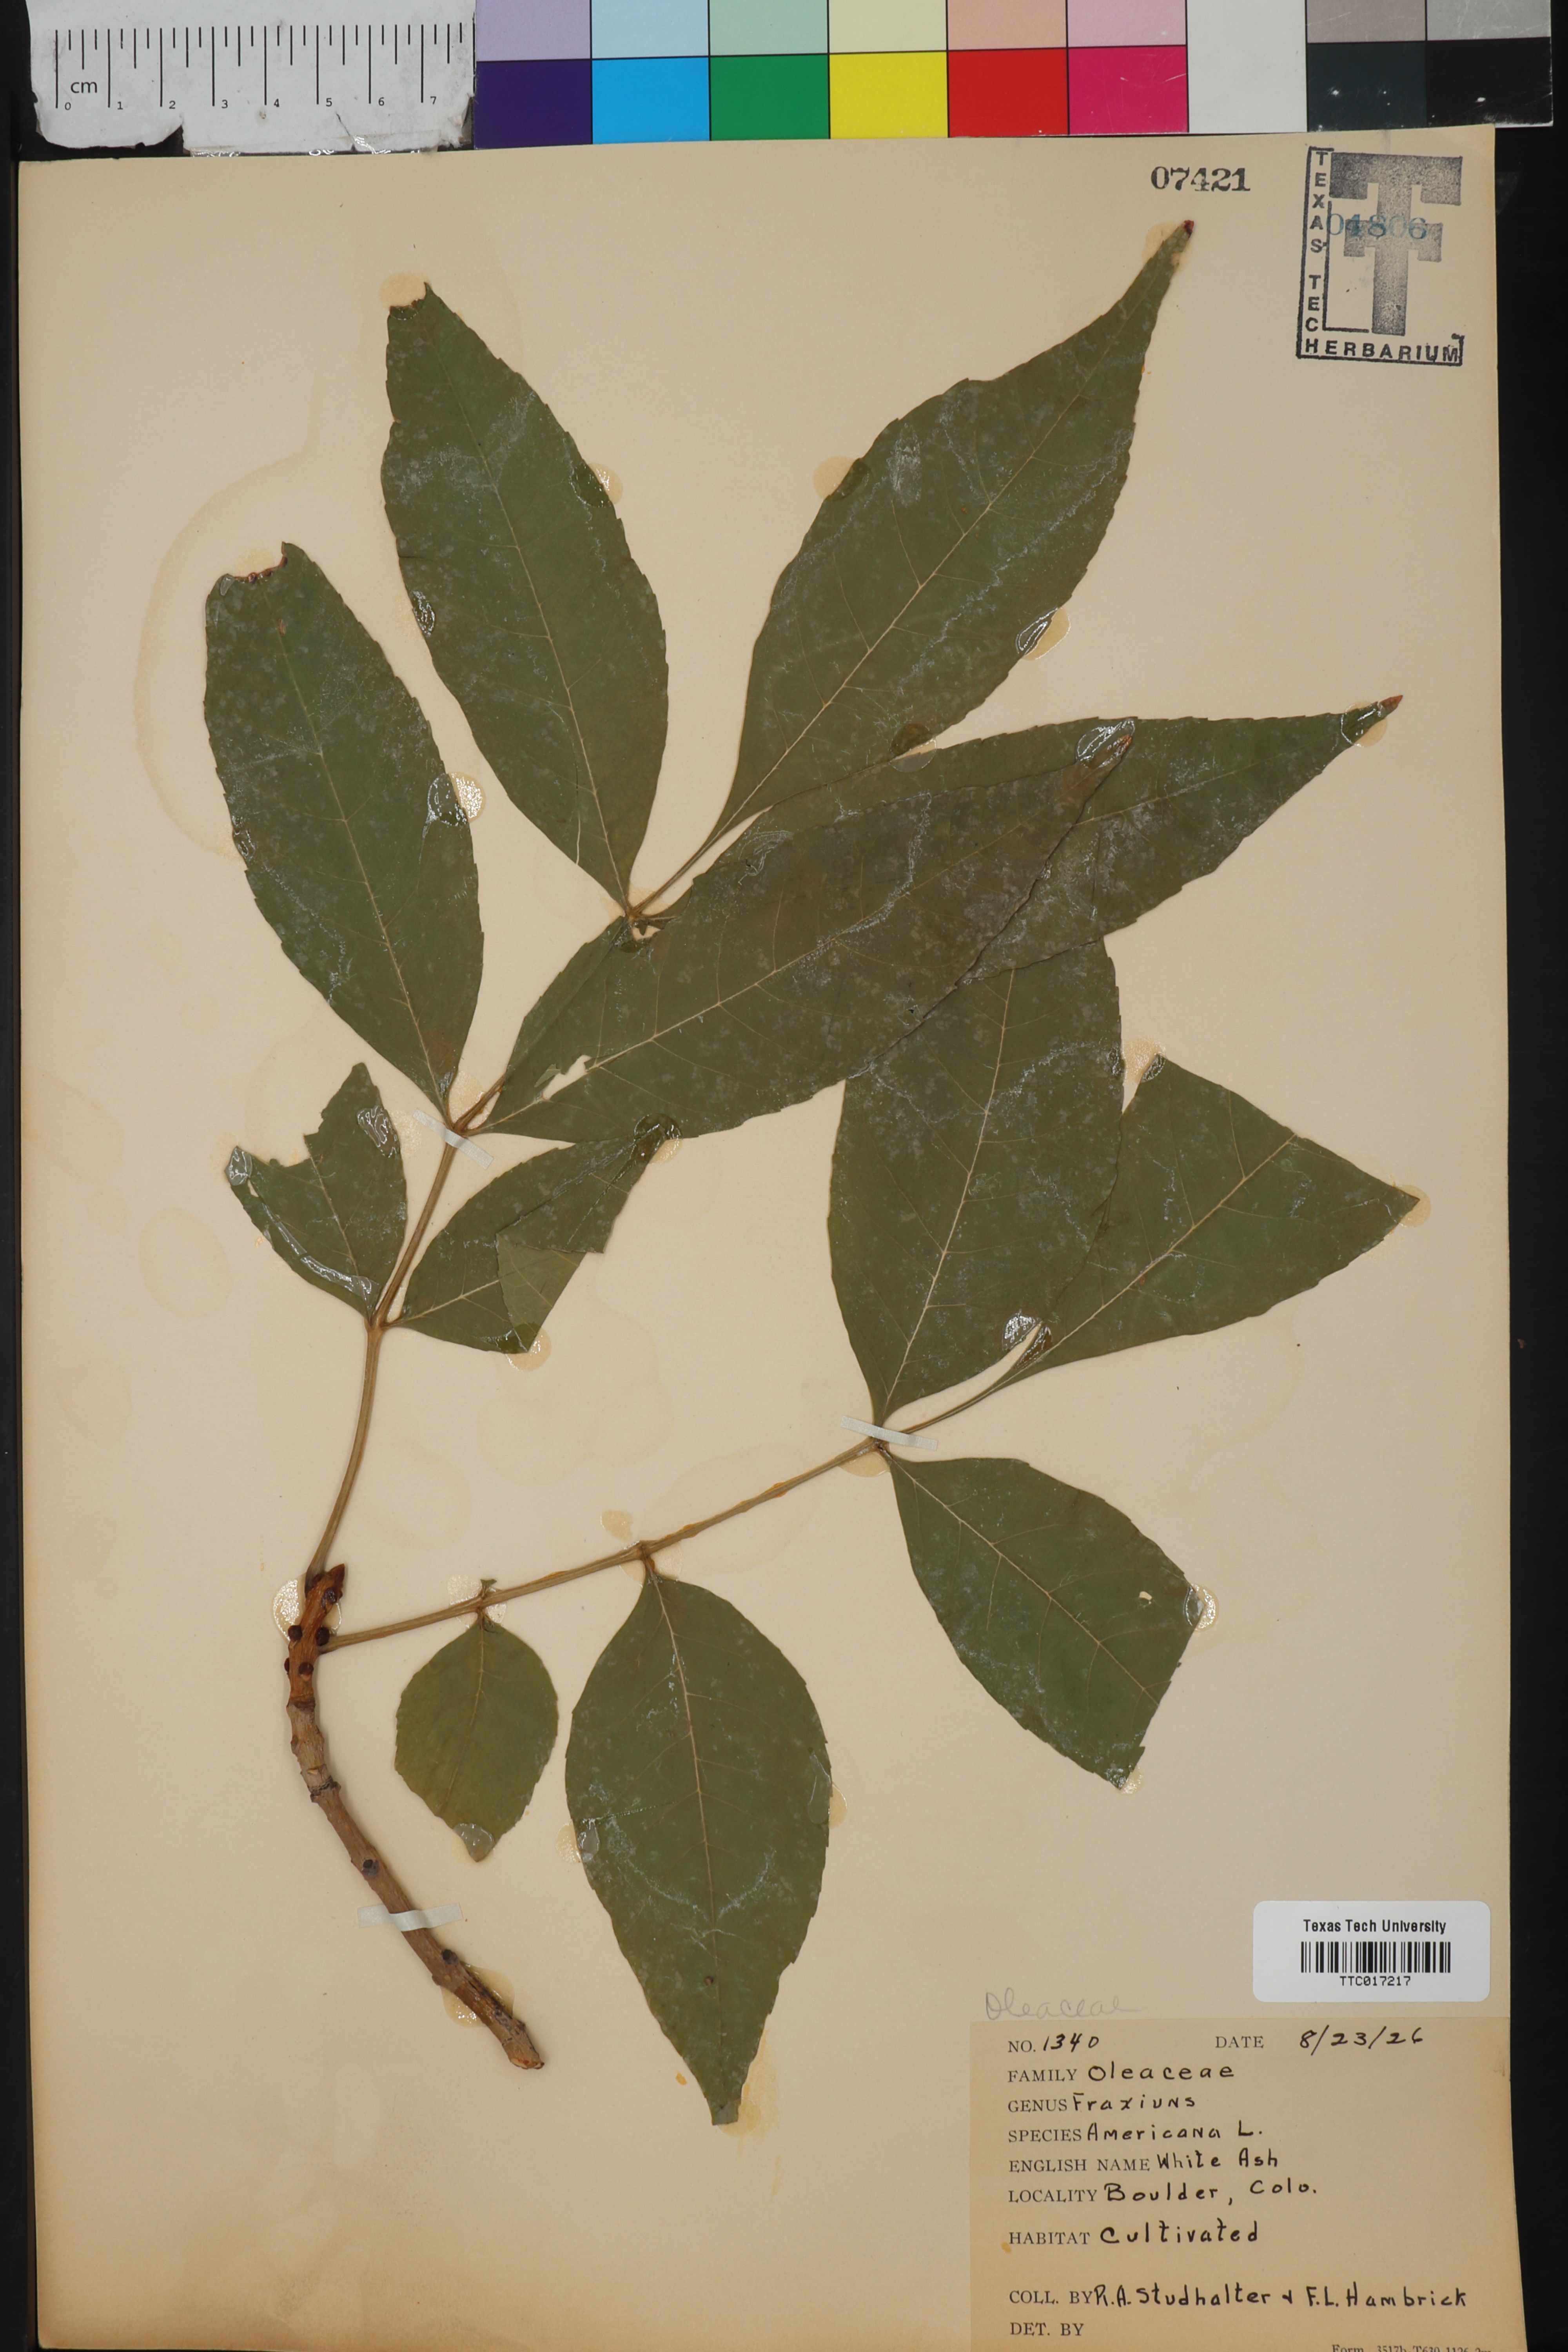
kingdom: Plantae
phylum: Tracheophyta
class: Magnoliopsida
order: Lamiales
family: Oleaceae
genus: Fraxinus
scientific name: Fraxinus americana
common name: White ash
